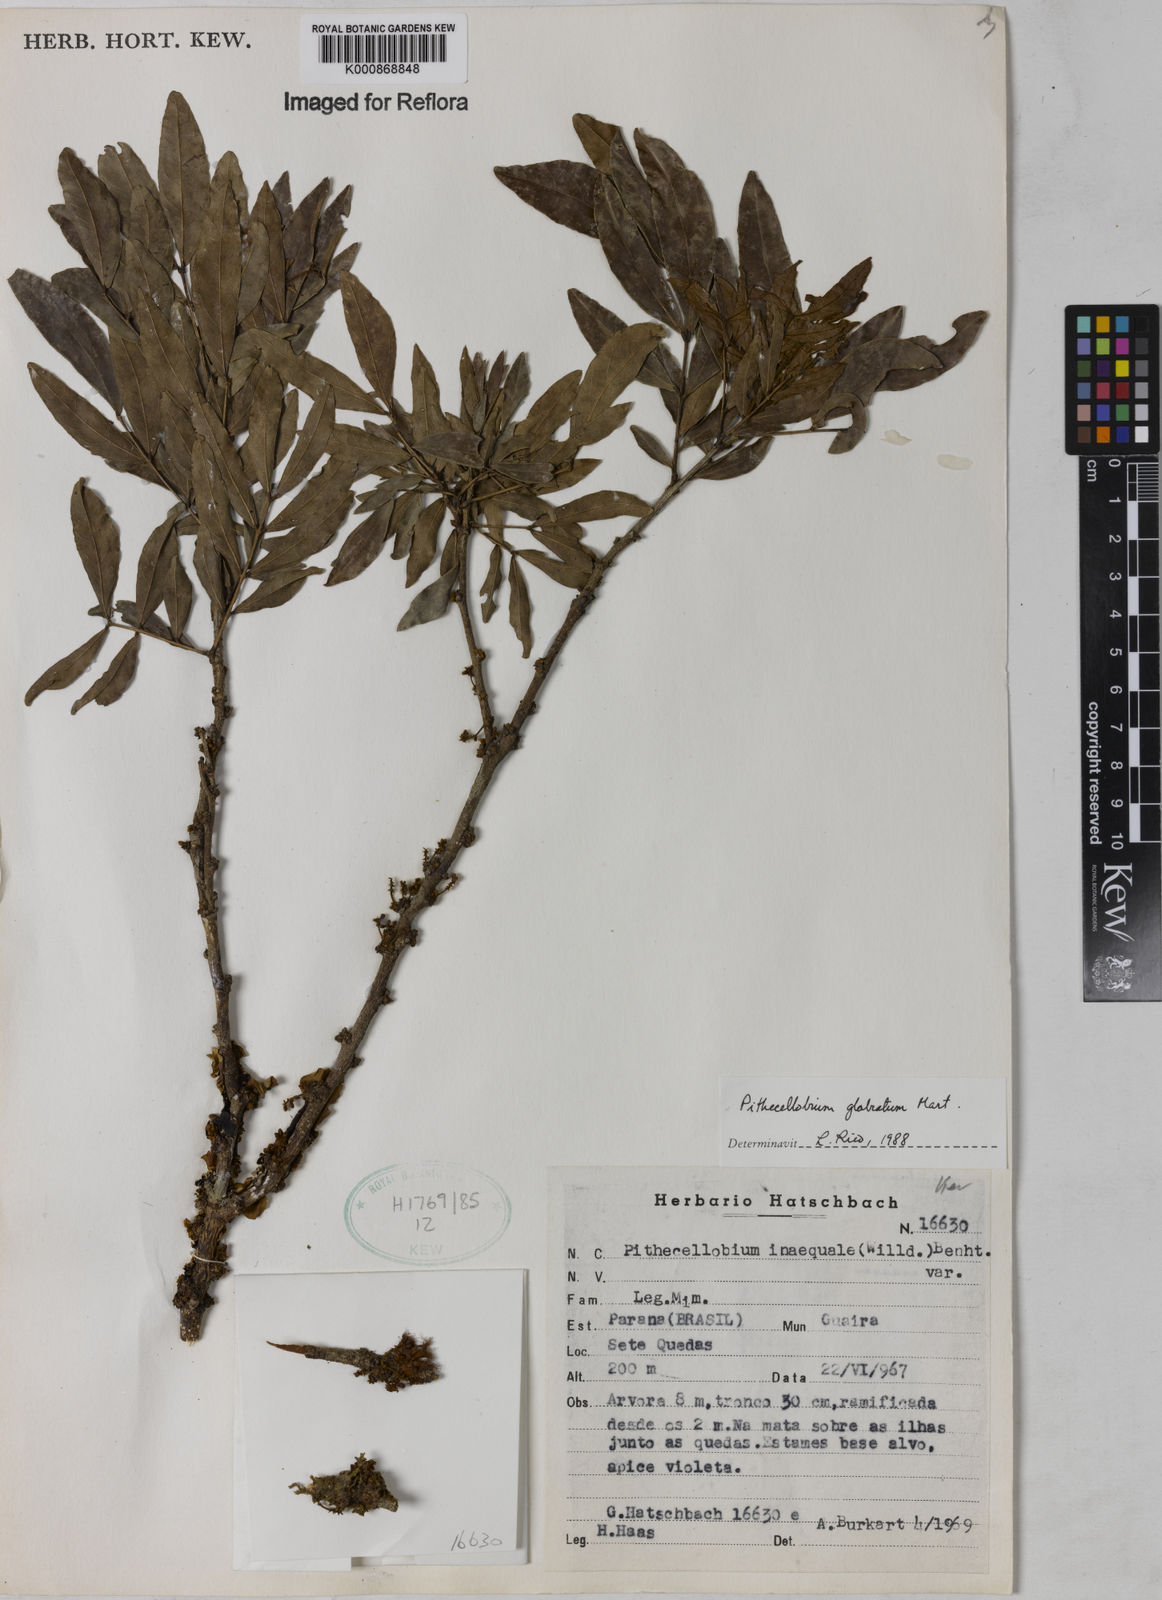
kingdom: Plantae
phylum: Tracheophyta
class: Magnoliopsida
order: Fabales
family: Fabaceae
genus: Zygia
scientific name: Zygia
